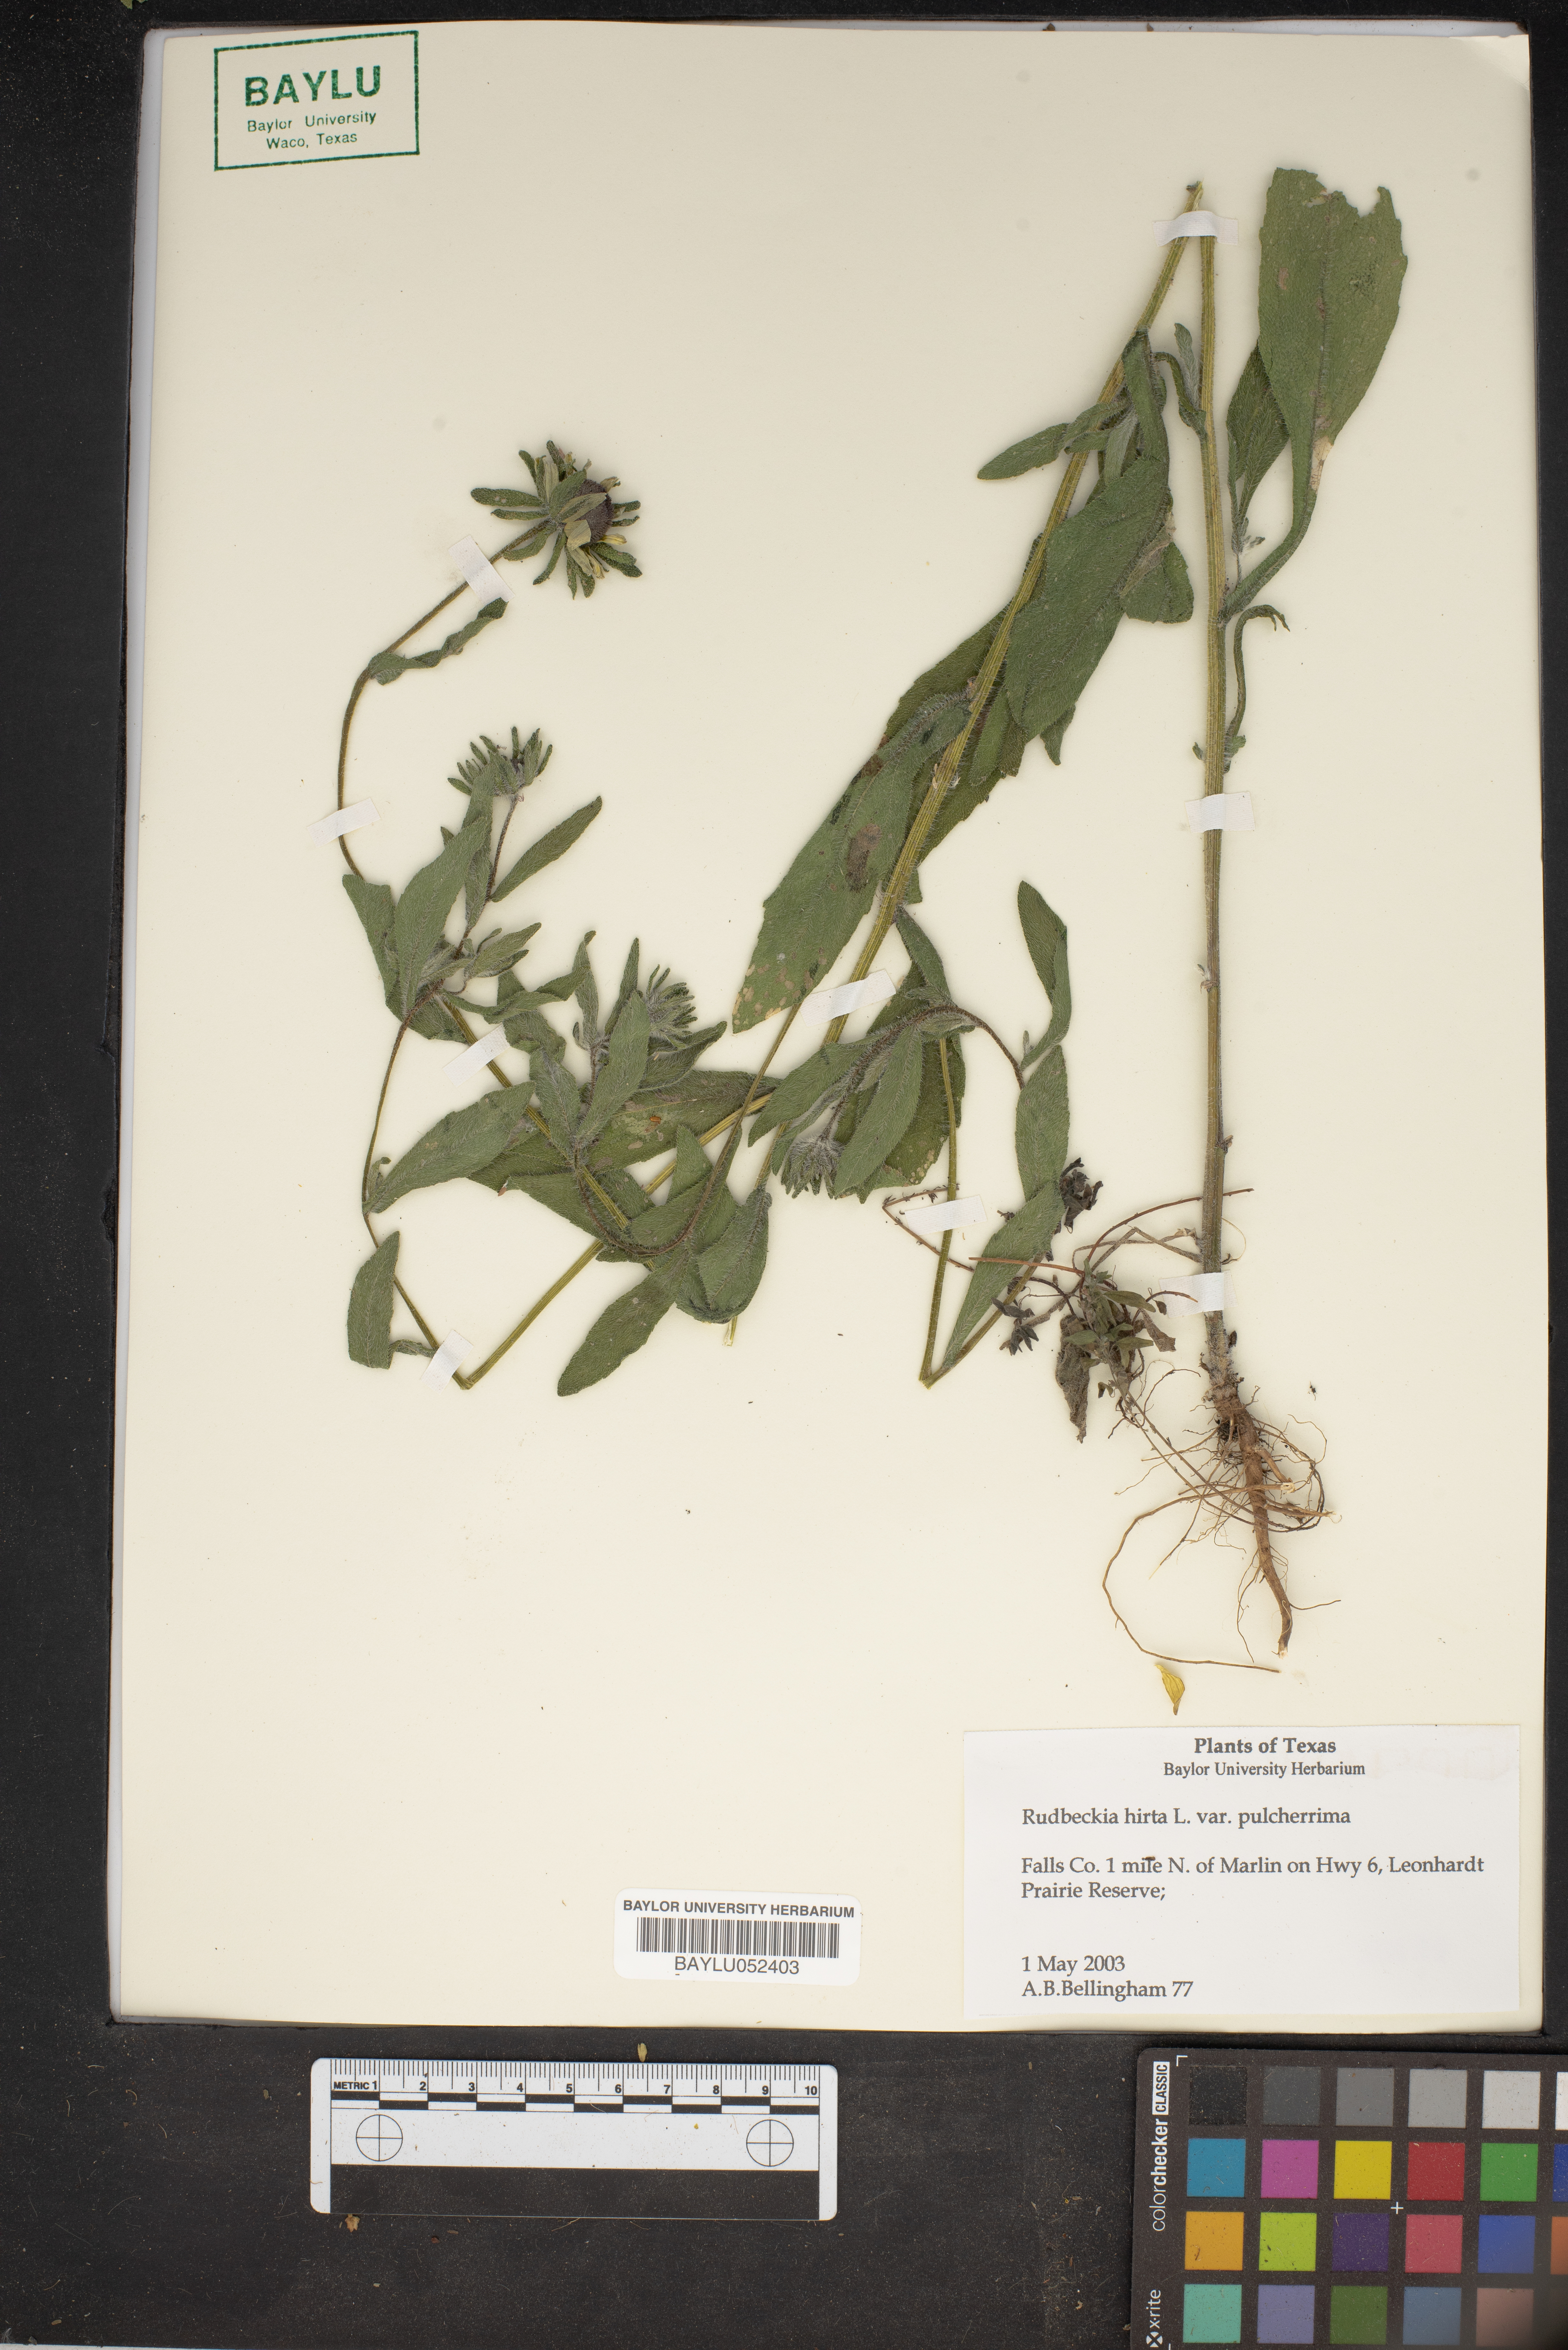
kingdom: Plantae
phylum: Tracheophyta
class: Magnoliopsida
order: Asterales
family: Asteraceae
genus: Rudbeckia
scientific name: Rudbeckia hirta
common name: Black-eyed-susan
